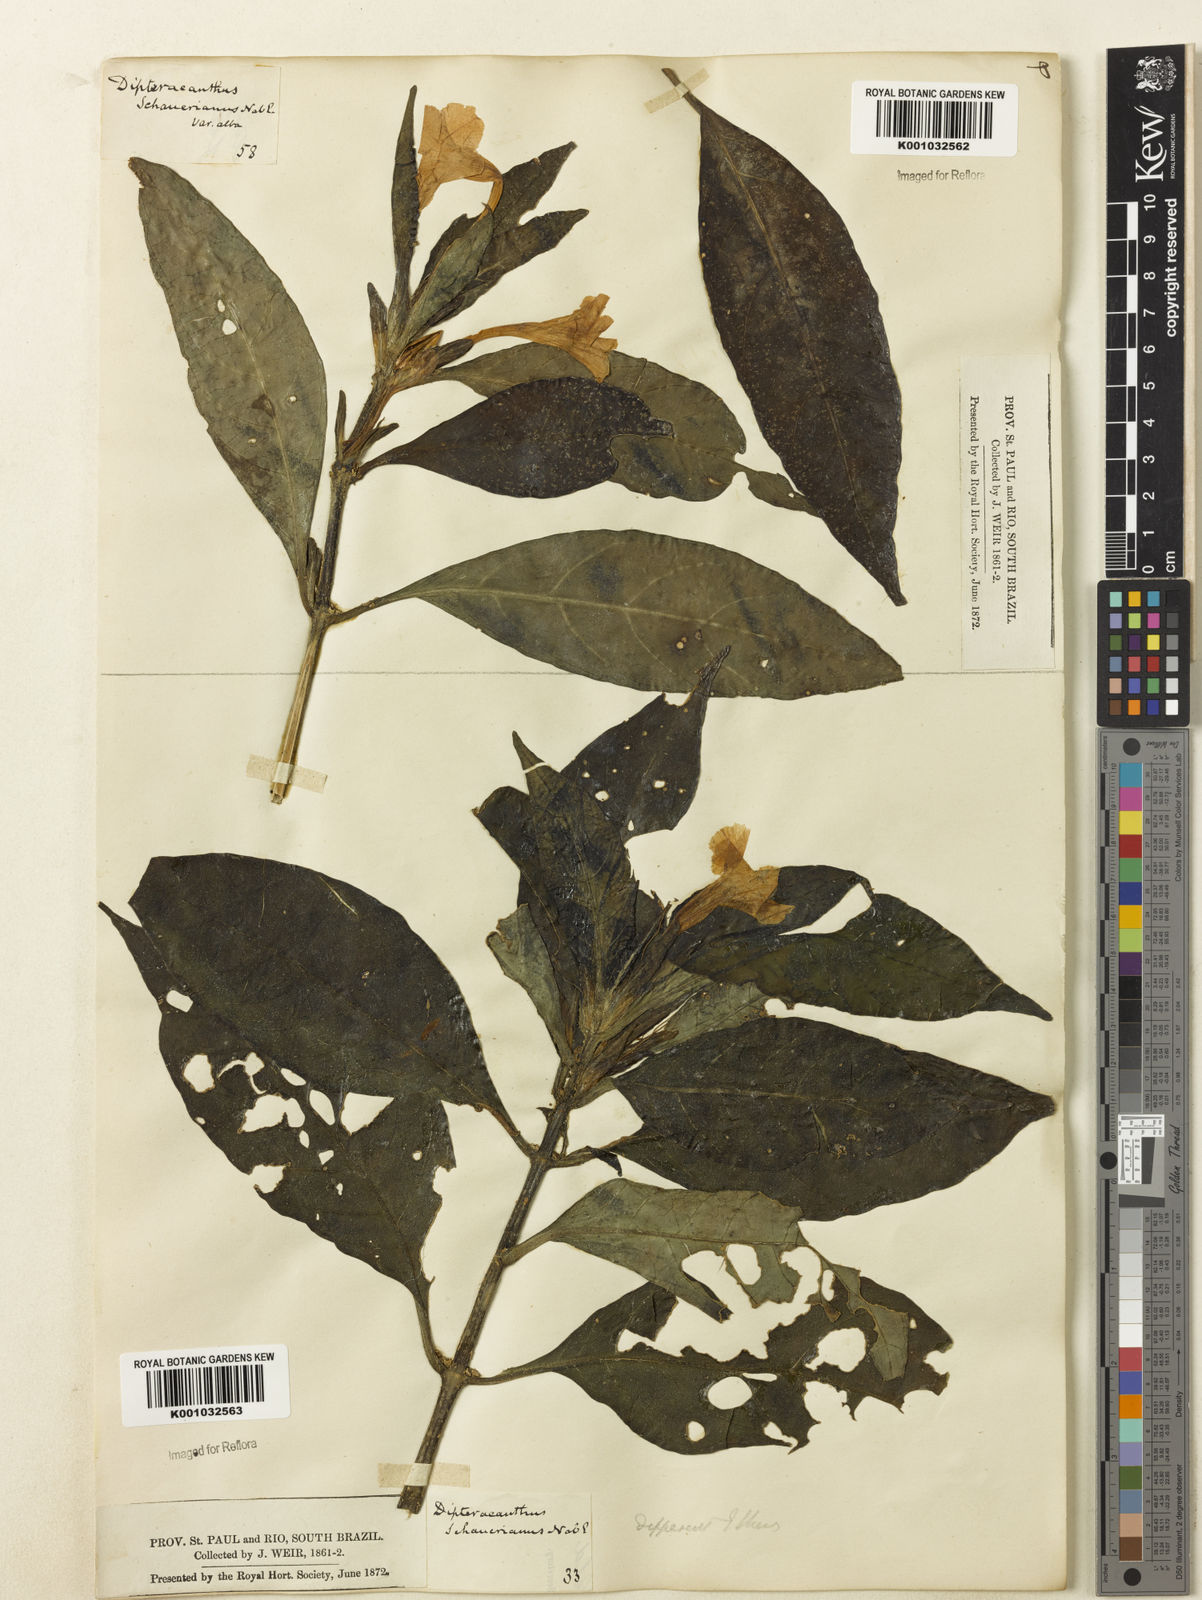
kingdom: Plantae
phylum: Tracheophyta
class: Magnoliopsida
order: Lamiales
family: Acanthaceae
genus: Ruellia
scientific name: Ruellia
